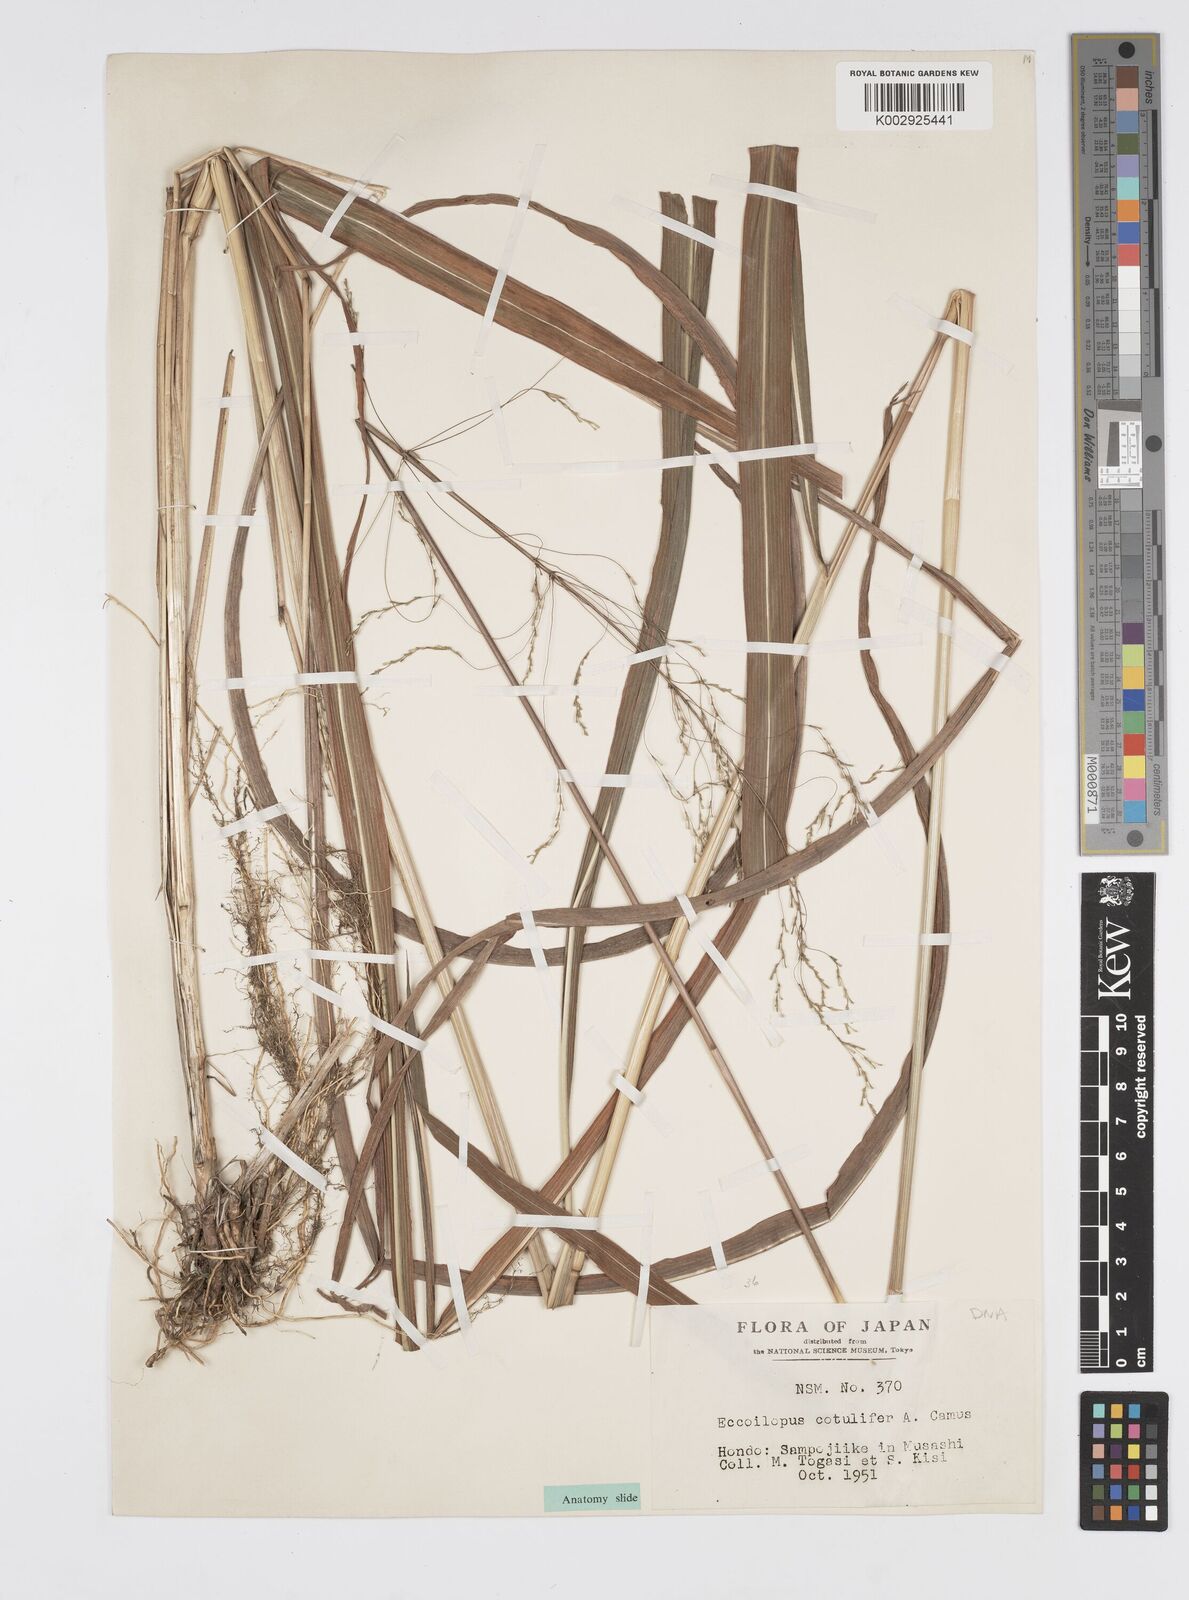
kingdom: Plantae
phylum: Tracheophyta
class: Liliopsida
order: Poales
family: Poaceae
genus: Spodiopogon
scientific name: Spodiopogon cotulifer
